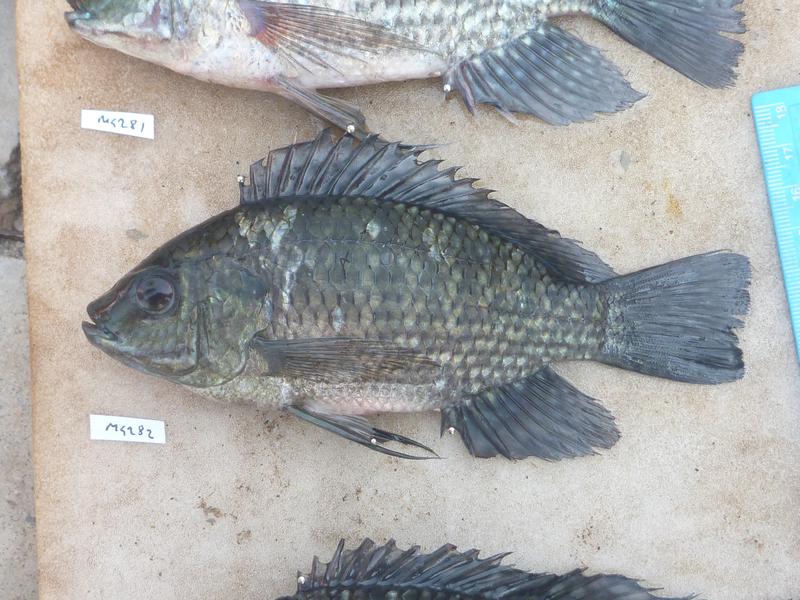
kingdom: Animalia
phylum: Chordata
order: Perciformes
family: Cichlidae
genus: Oreochromis
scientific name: Oreochromis leucostictus
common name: Blue spotted tilapia
